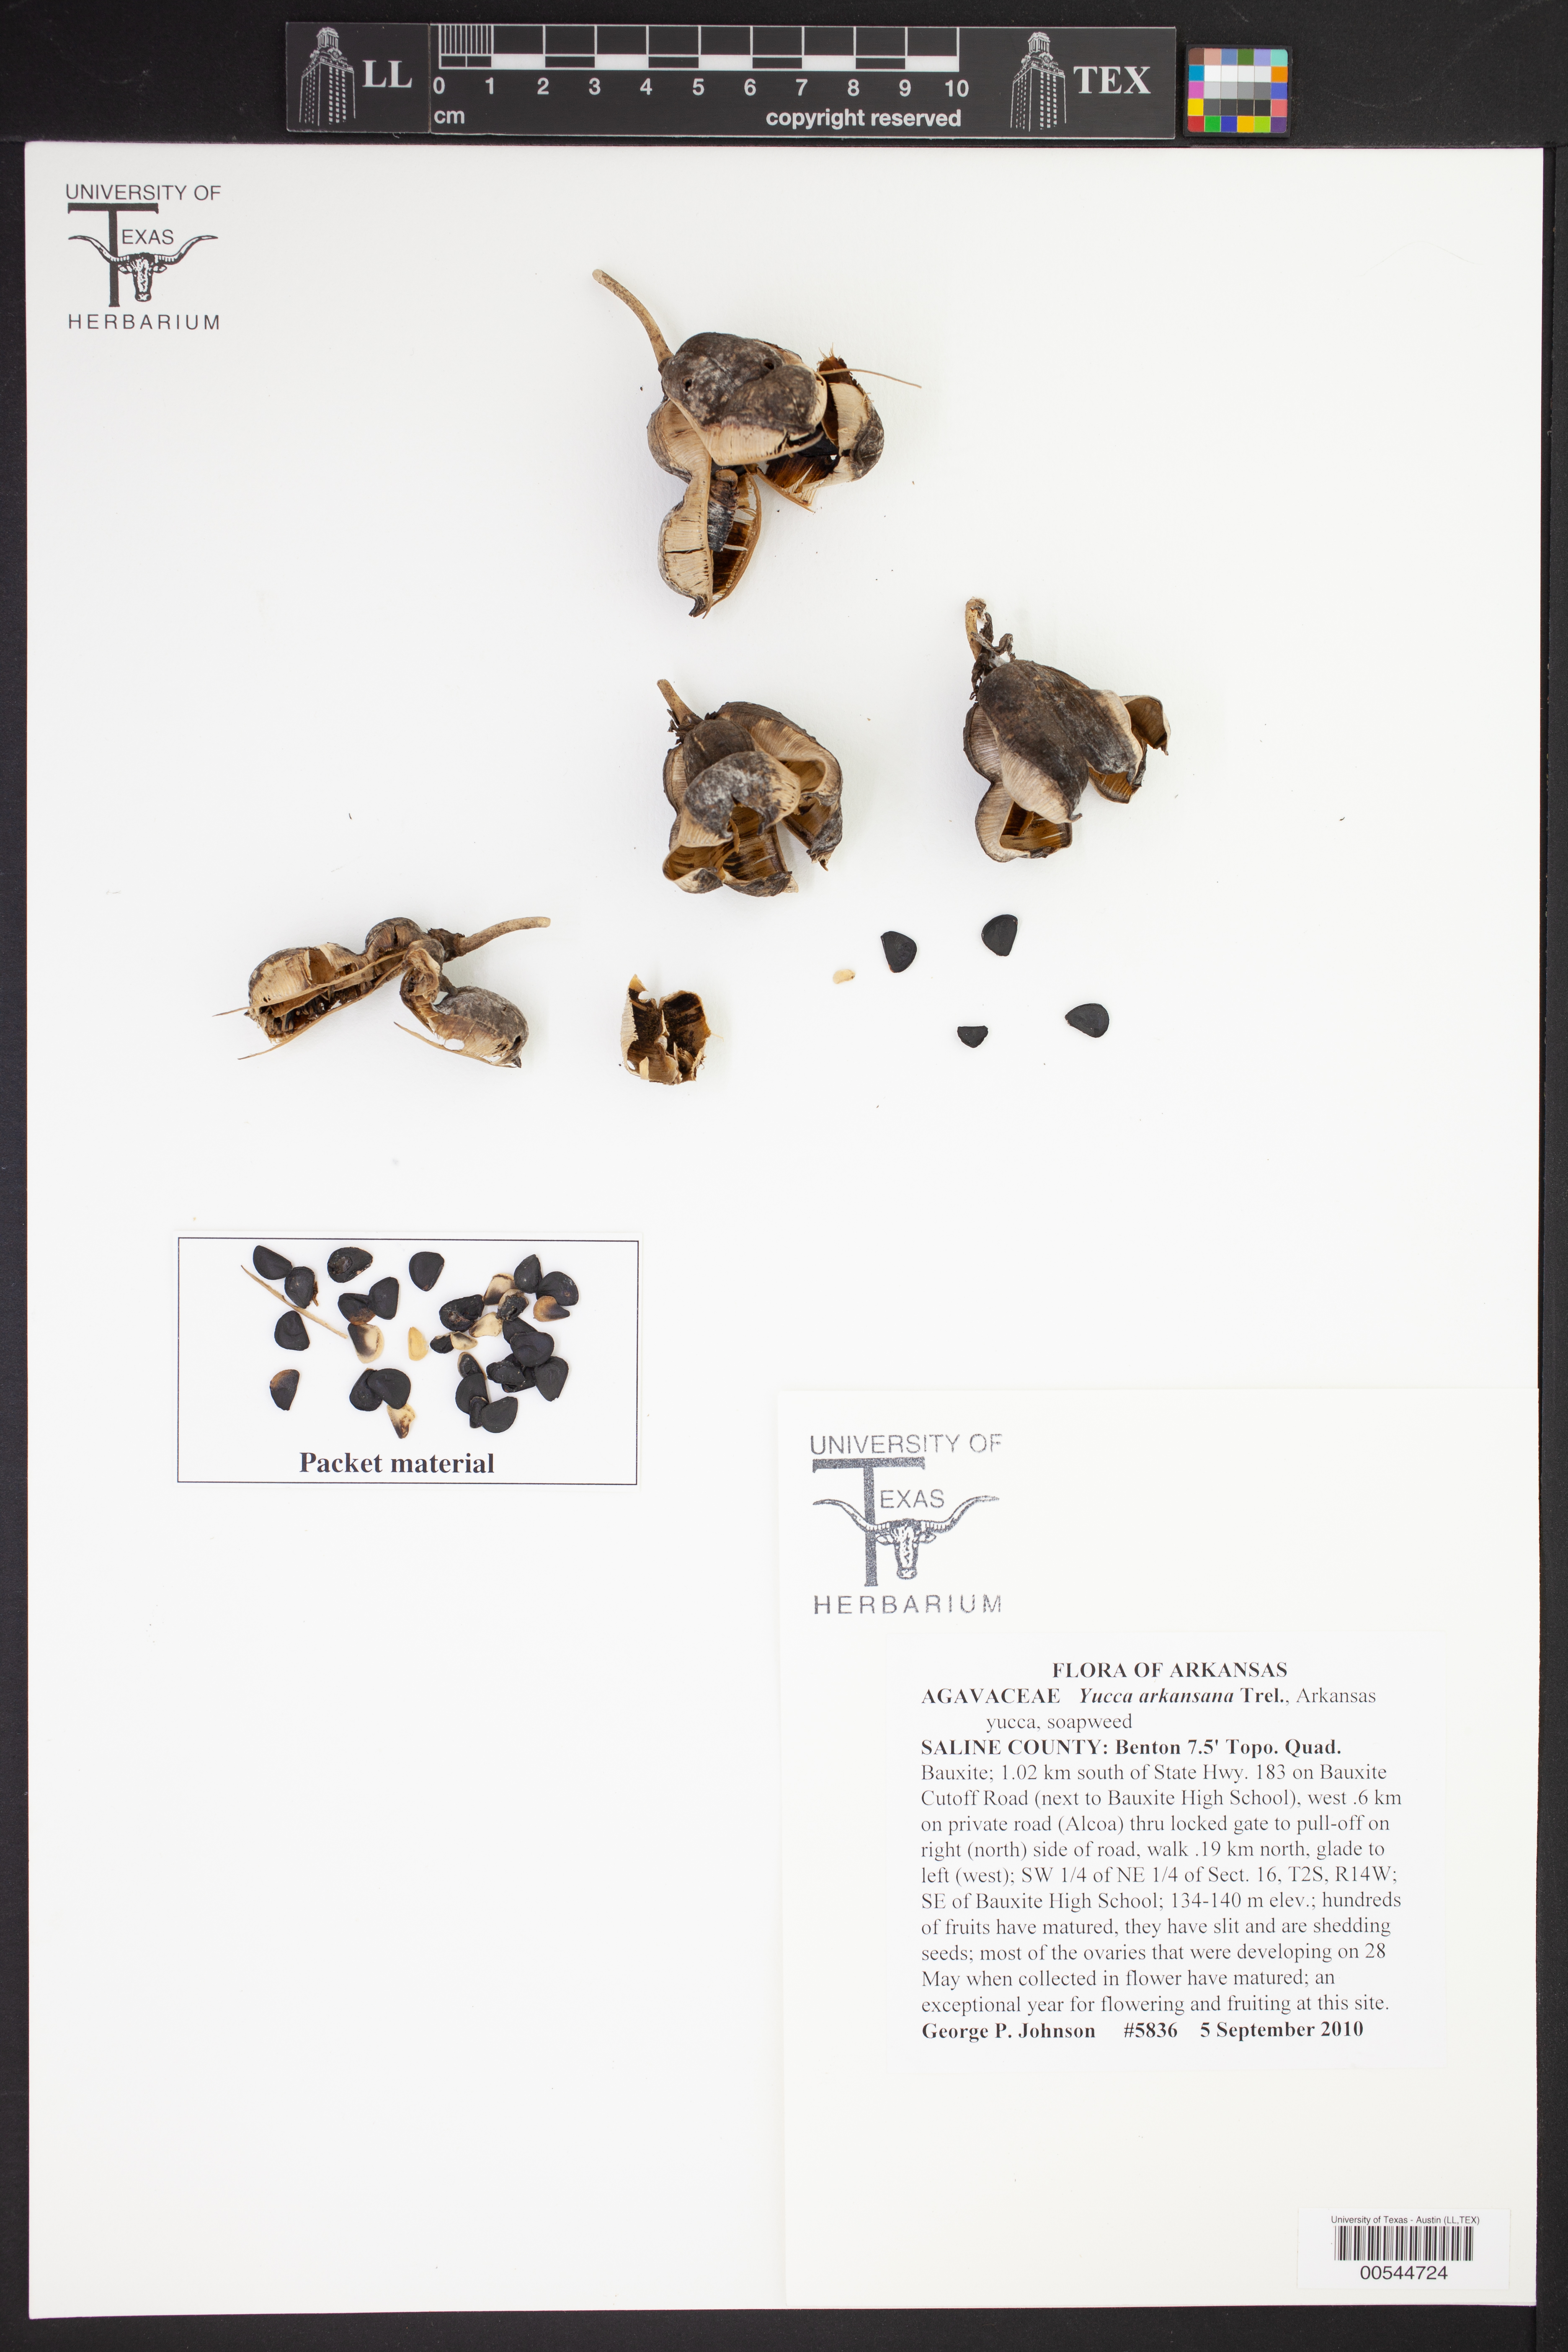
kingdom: Plantae
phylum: Tracheophyta
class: Liliopsida
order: Asparagales
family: Asparagaceae
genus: Yucca
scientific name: Yucca arkansana
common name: Arkansas yucca
